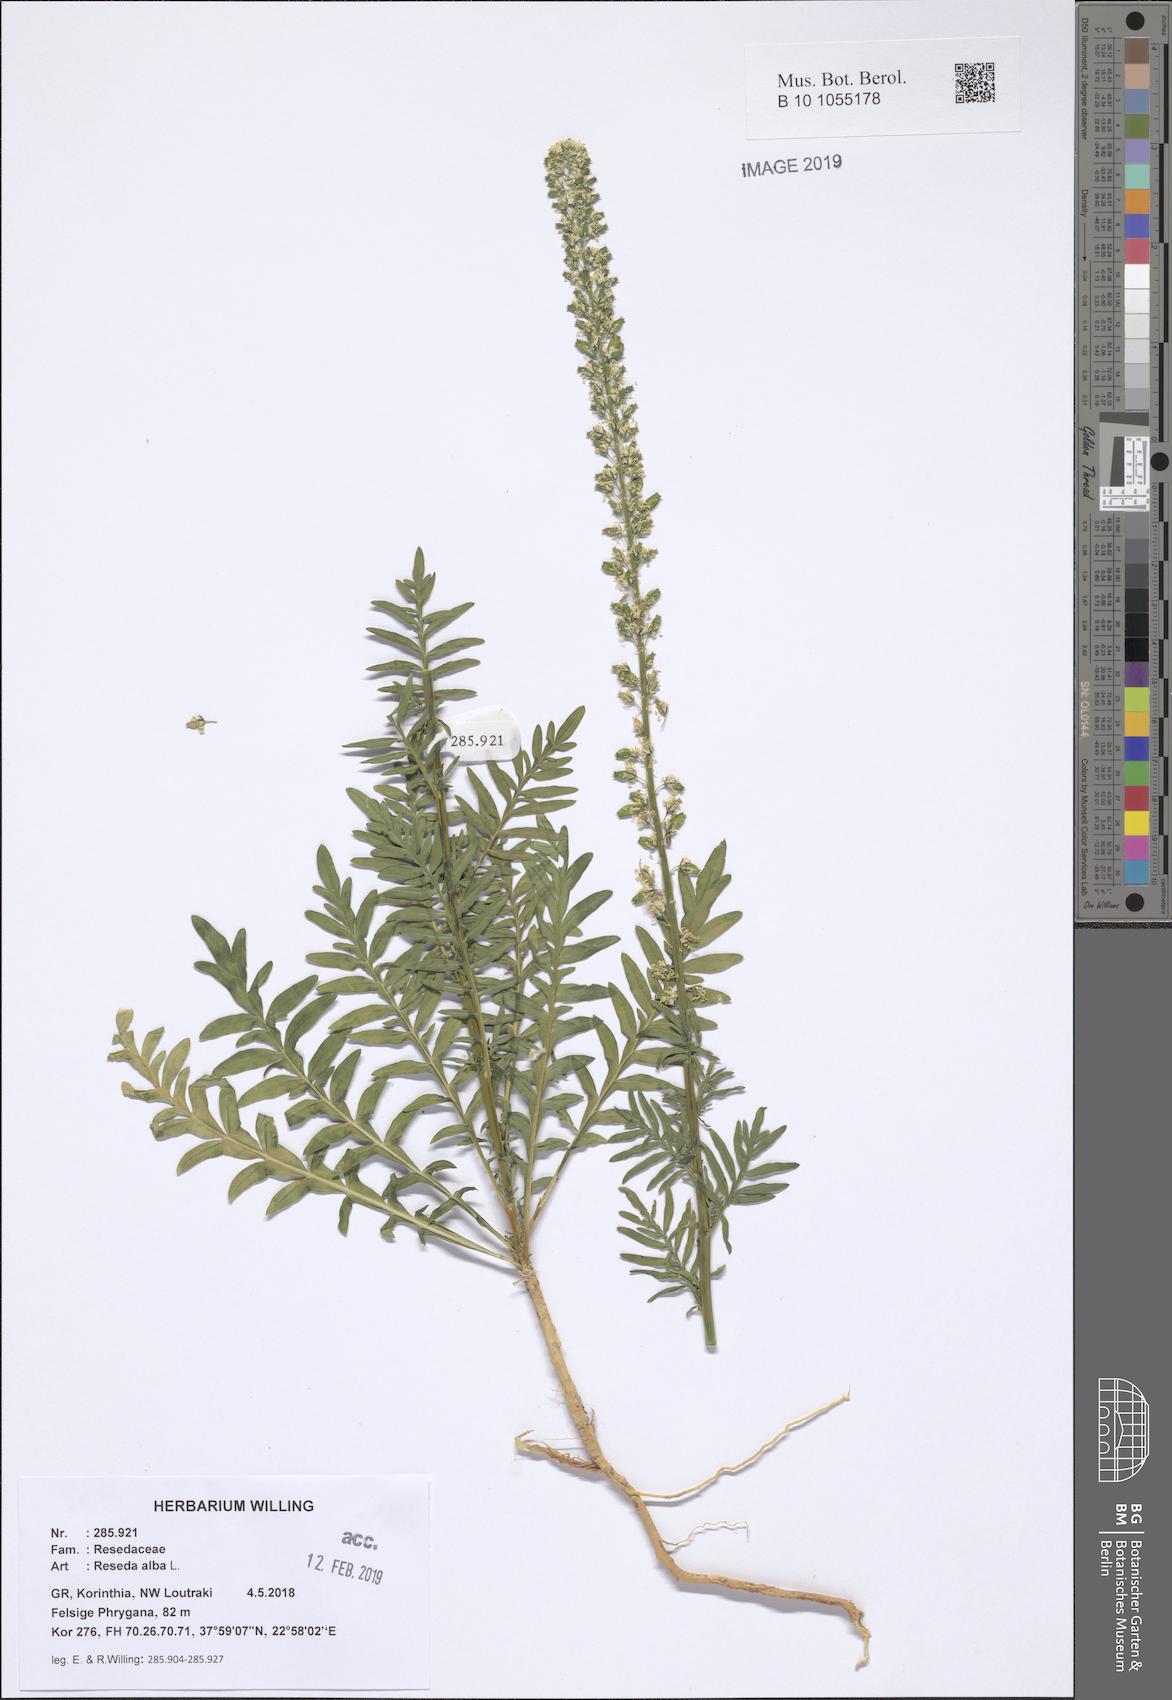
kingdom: Plantae
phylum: Tracheophyta
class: Magnoliopsida
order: Brassicales
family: Resedaceae
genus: Reseda
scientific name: Reseda alba
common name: White mignonette
